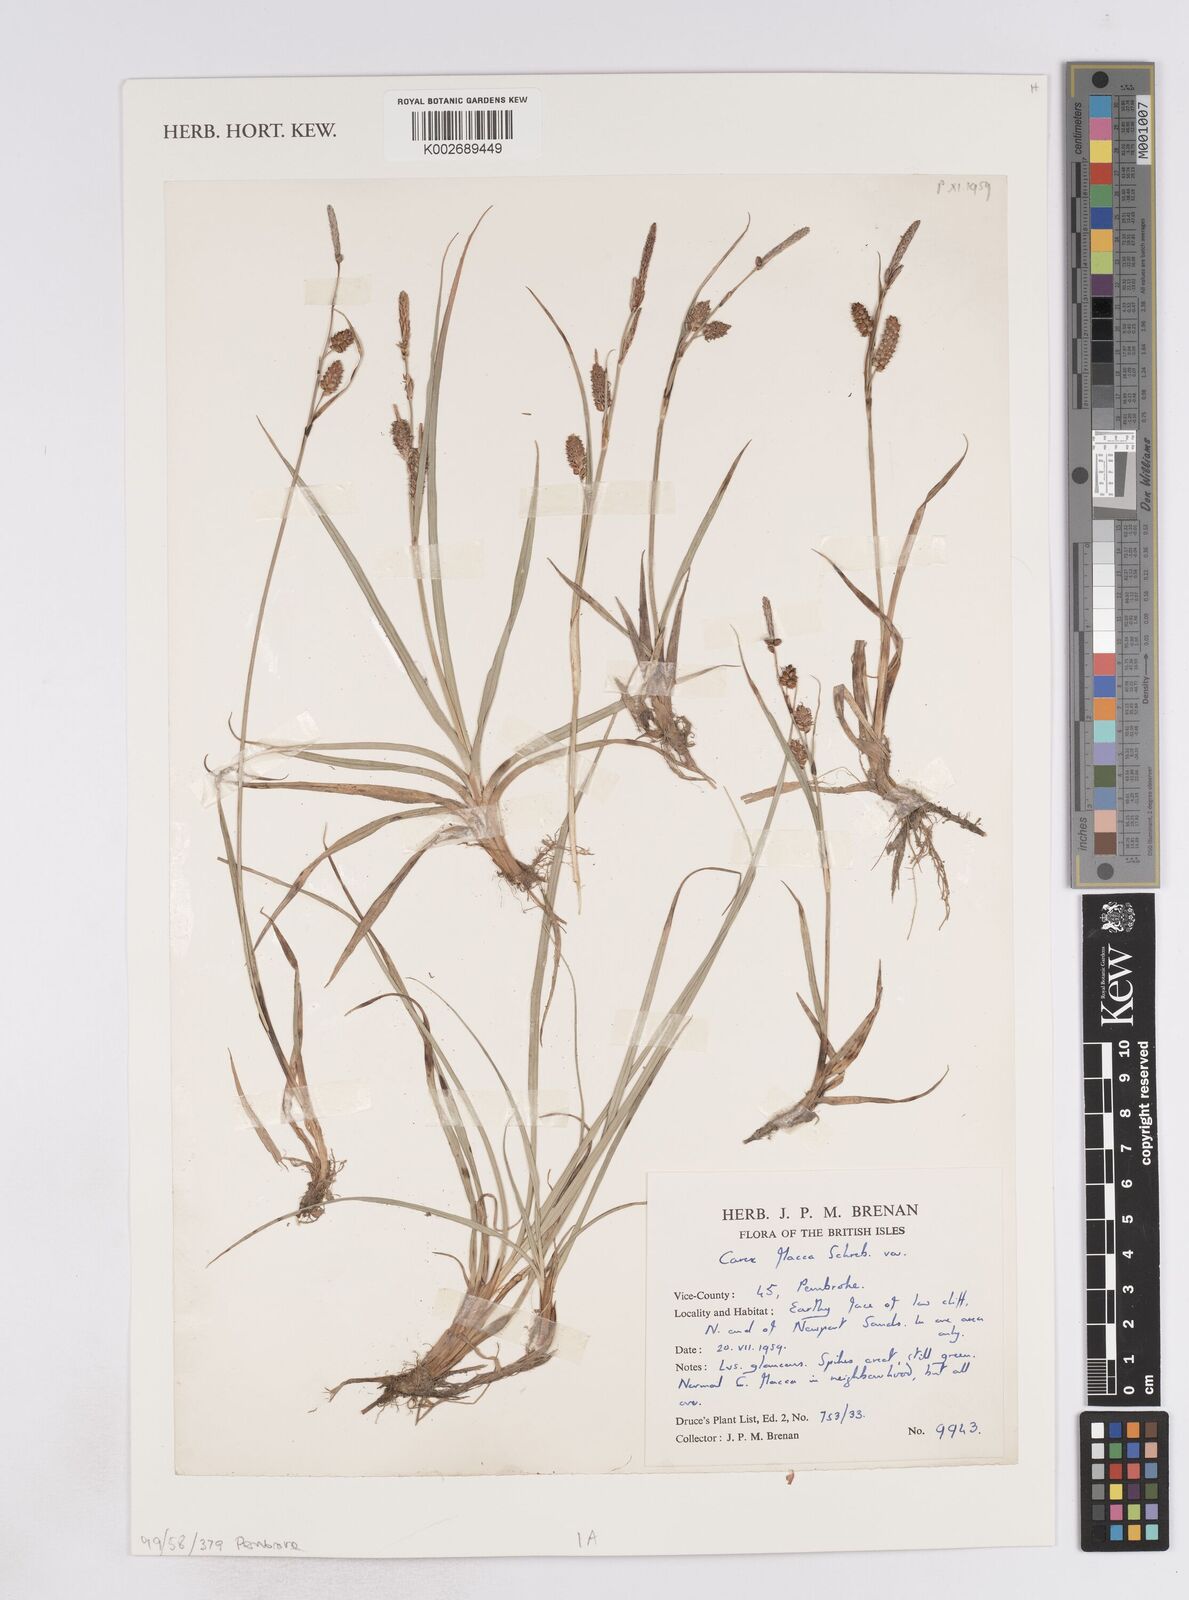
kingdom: Plantae
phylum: Tracheophyta
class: Liliopsida
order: Poales
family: Cyperaceae
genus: Carex
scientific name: Carex flacca
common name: Glaucous sedge
